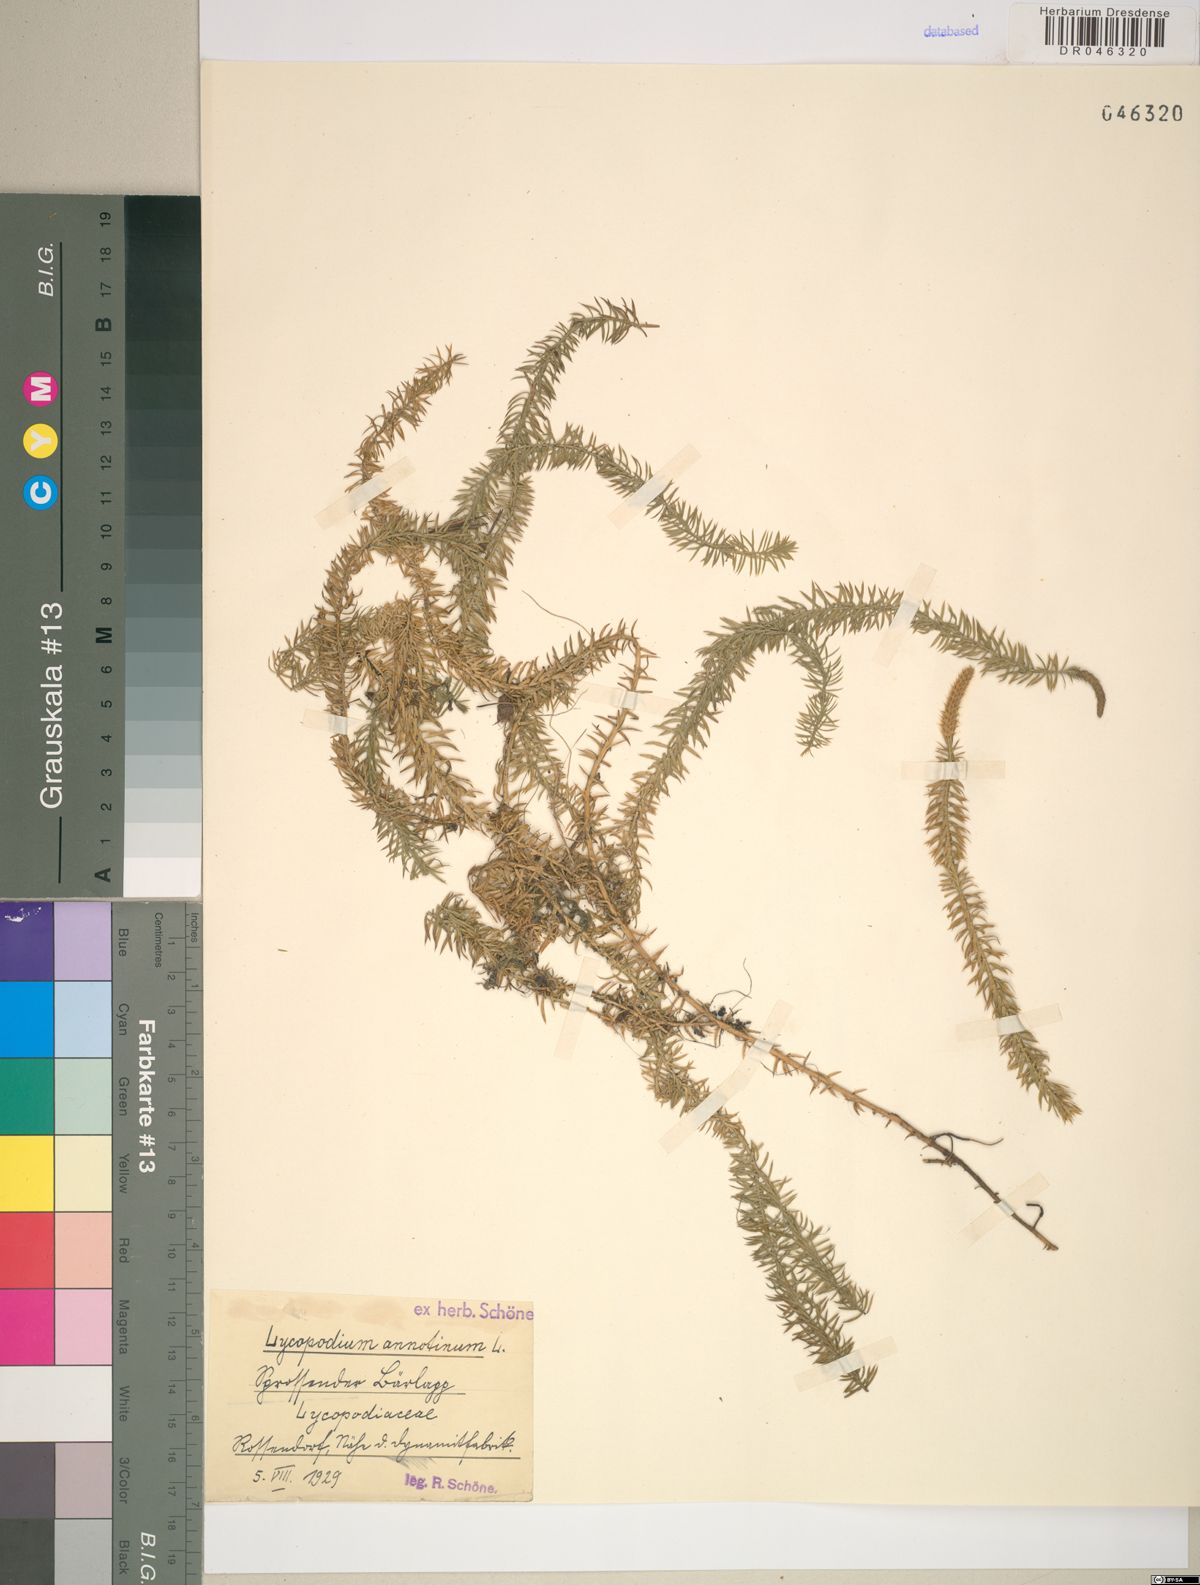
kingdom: Plantae
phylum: Tracheophyta
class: Lycopodiopsida
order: Lycopodiales
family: Lycopodiaceae
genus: Spinulum
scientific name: Spinulum annotinum
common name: Interrupted club-moss
